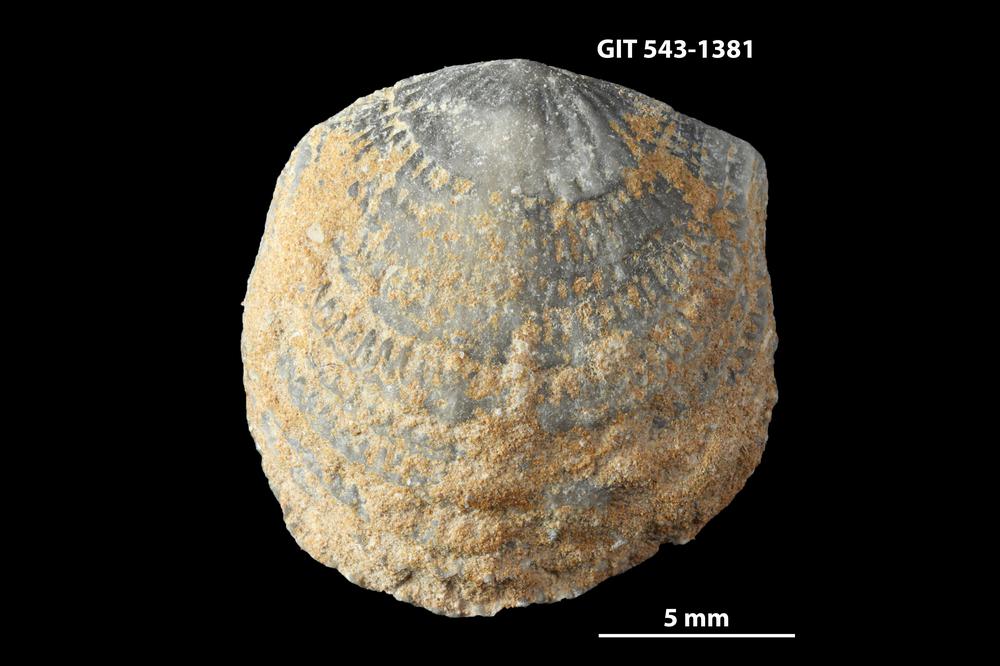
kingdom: Animalia
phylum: Brachiopoda
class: Rhynchonellata
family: Clitambonitidae
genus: Clitambonites
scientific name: Clitambonites Orthisina schmidti
